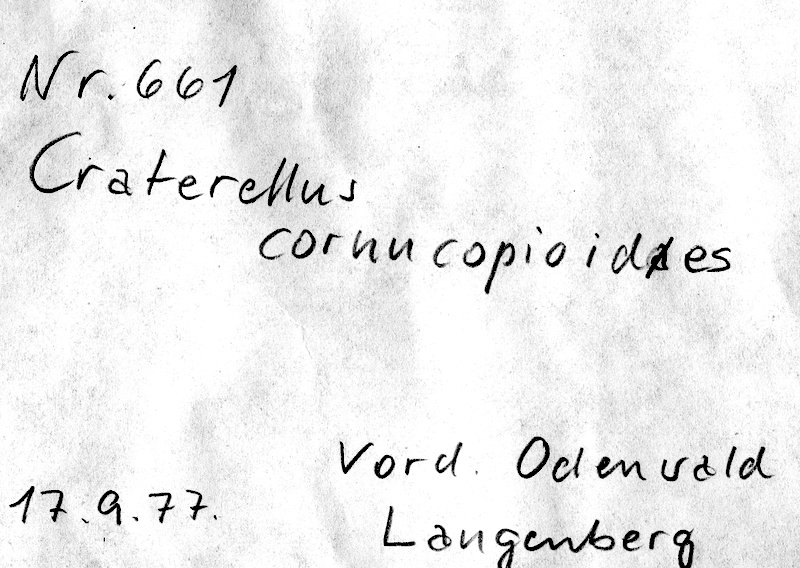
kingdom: Fungi
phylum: Basidiomycota
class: Agaricomycetes
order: Cantharellales
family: Hydnaceae
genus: Craterellus
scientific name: Craterellus cornucopioides
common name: Horn of plenty
